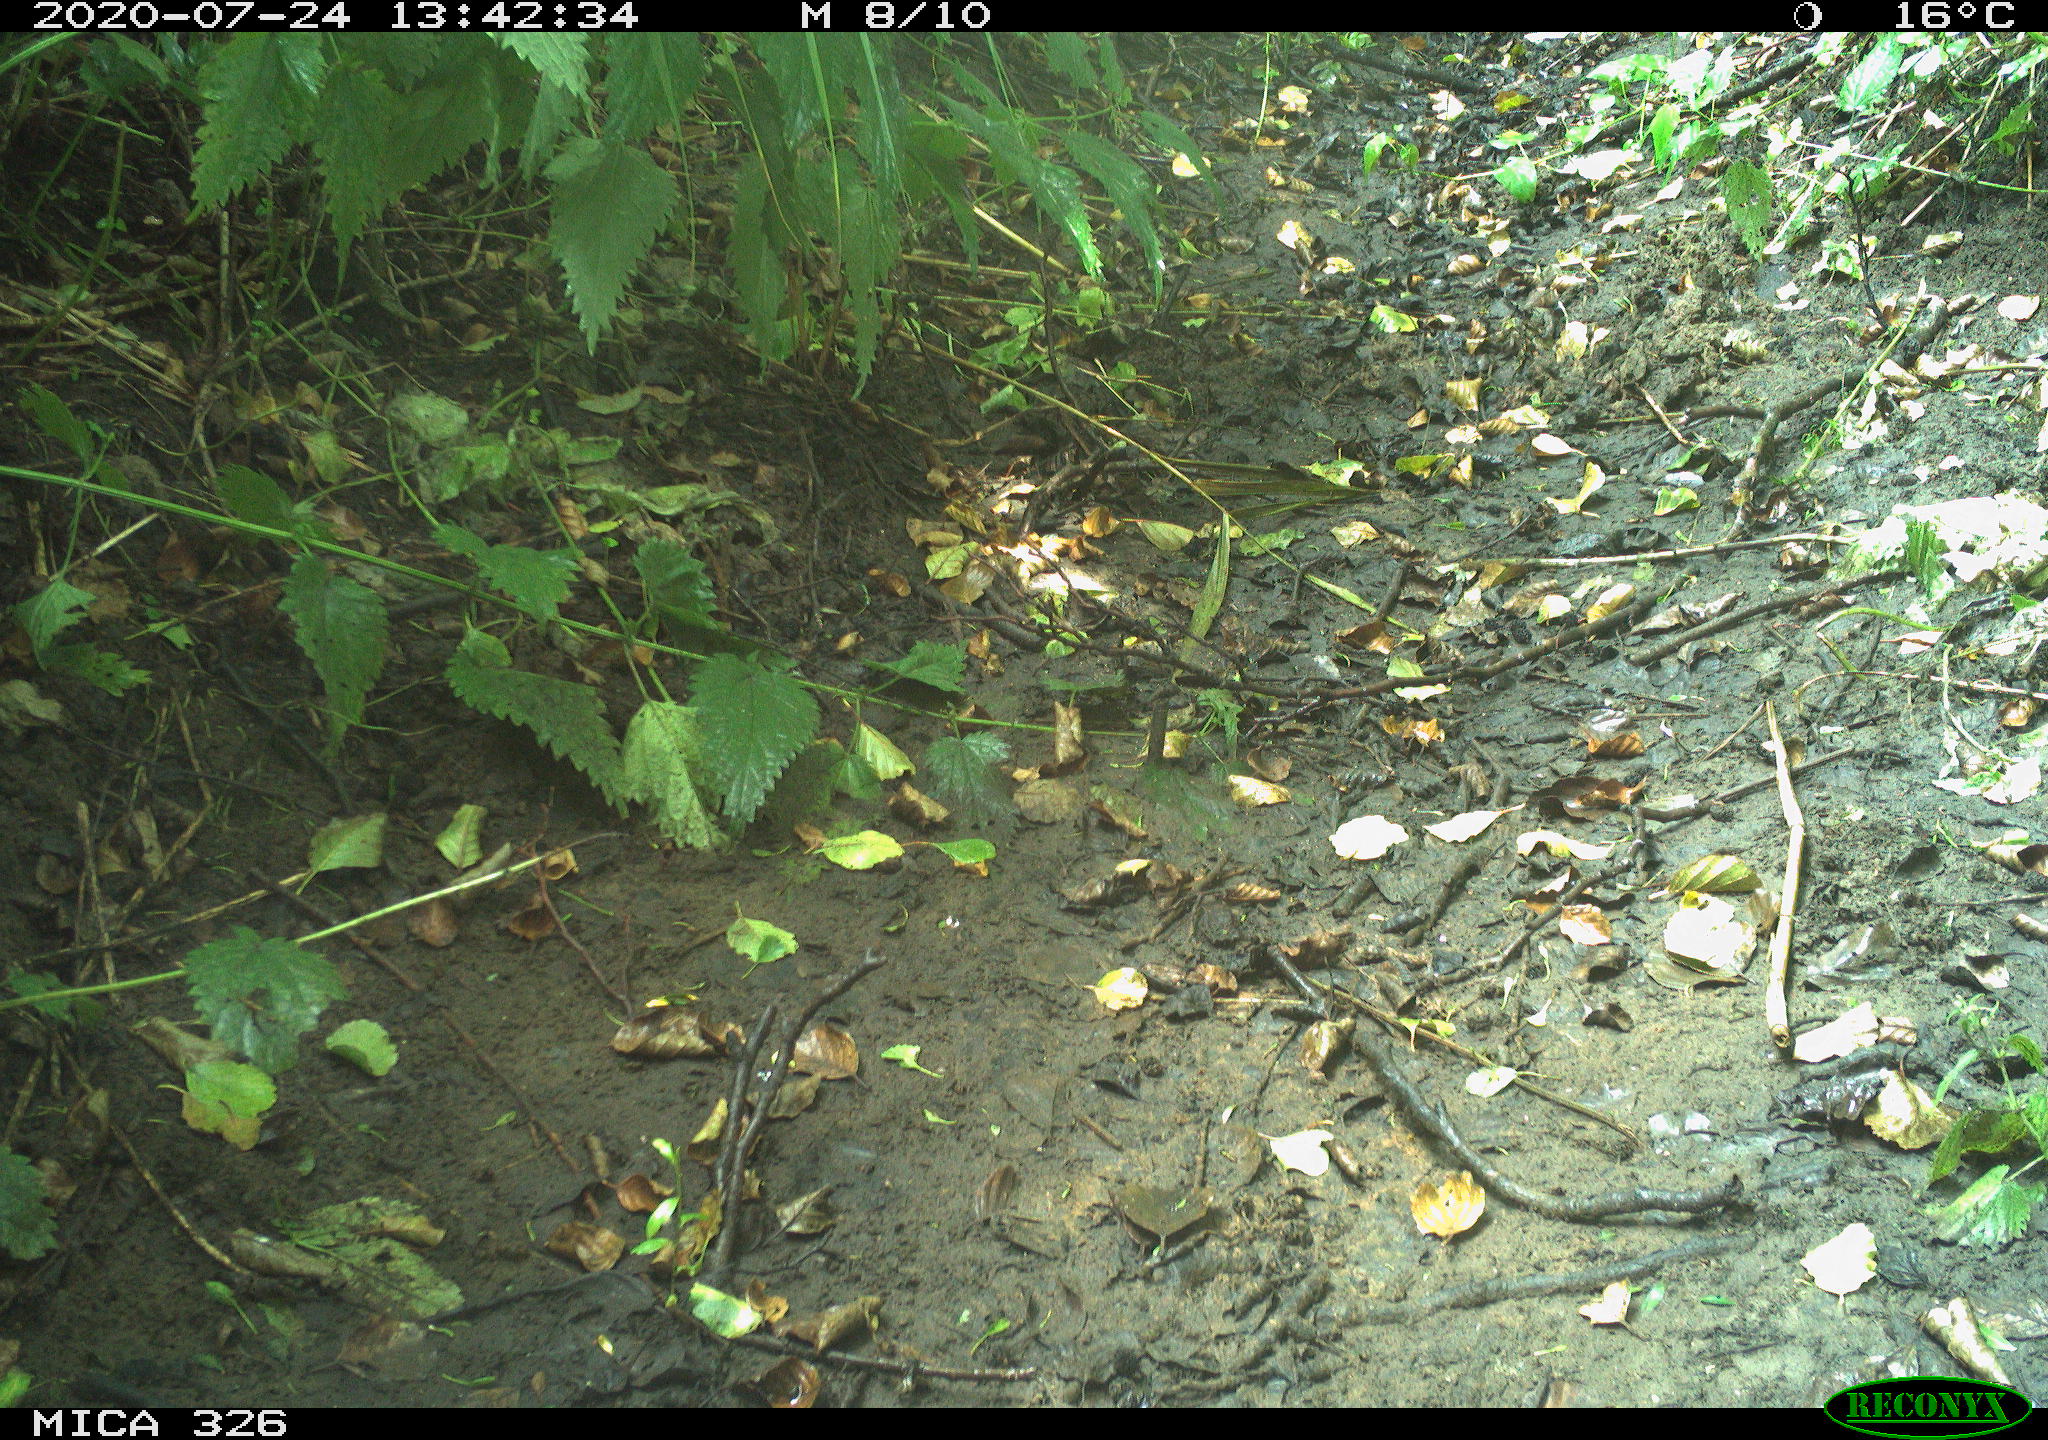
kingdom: Animalia
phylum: Chordata
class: Aves
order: Passeriformes
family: Turdidae
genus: Turdus
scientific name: Turdus philomelos
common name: Song thrush
